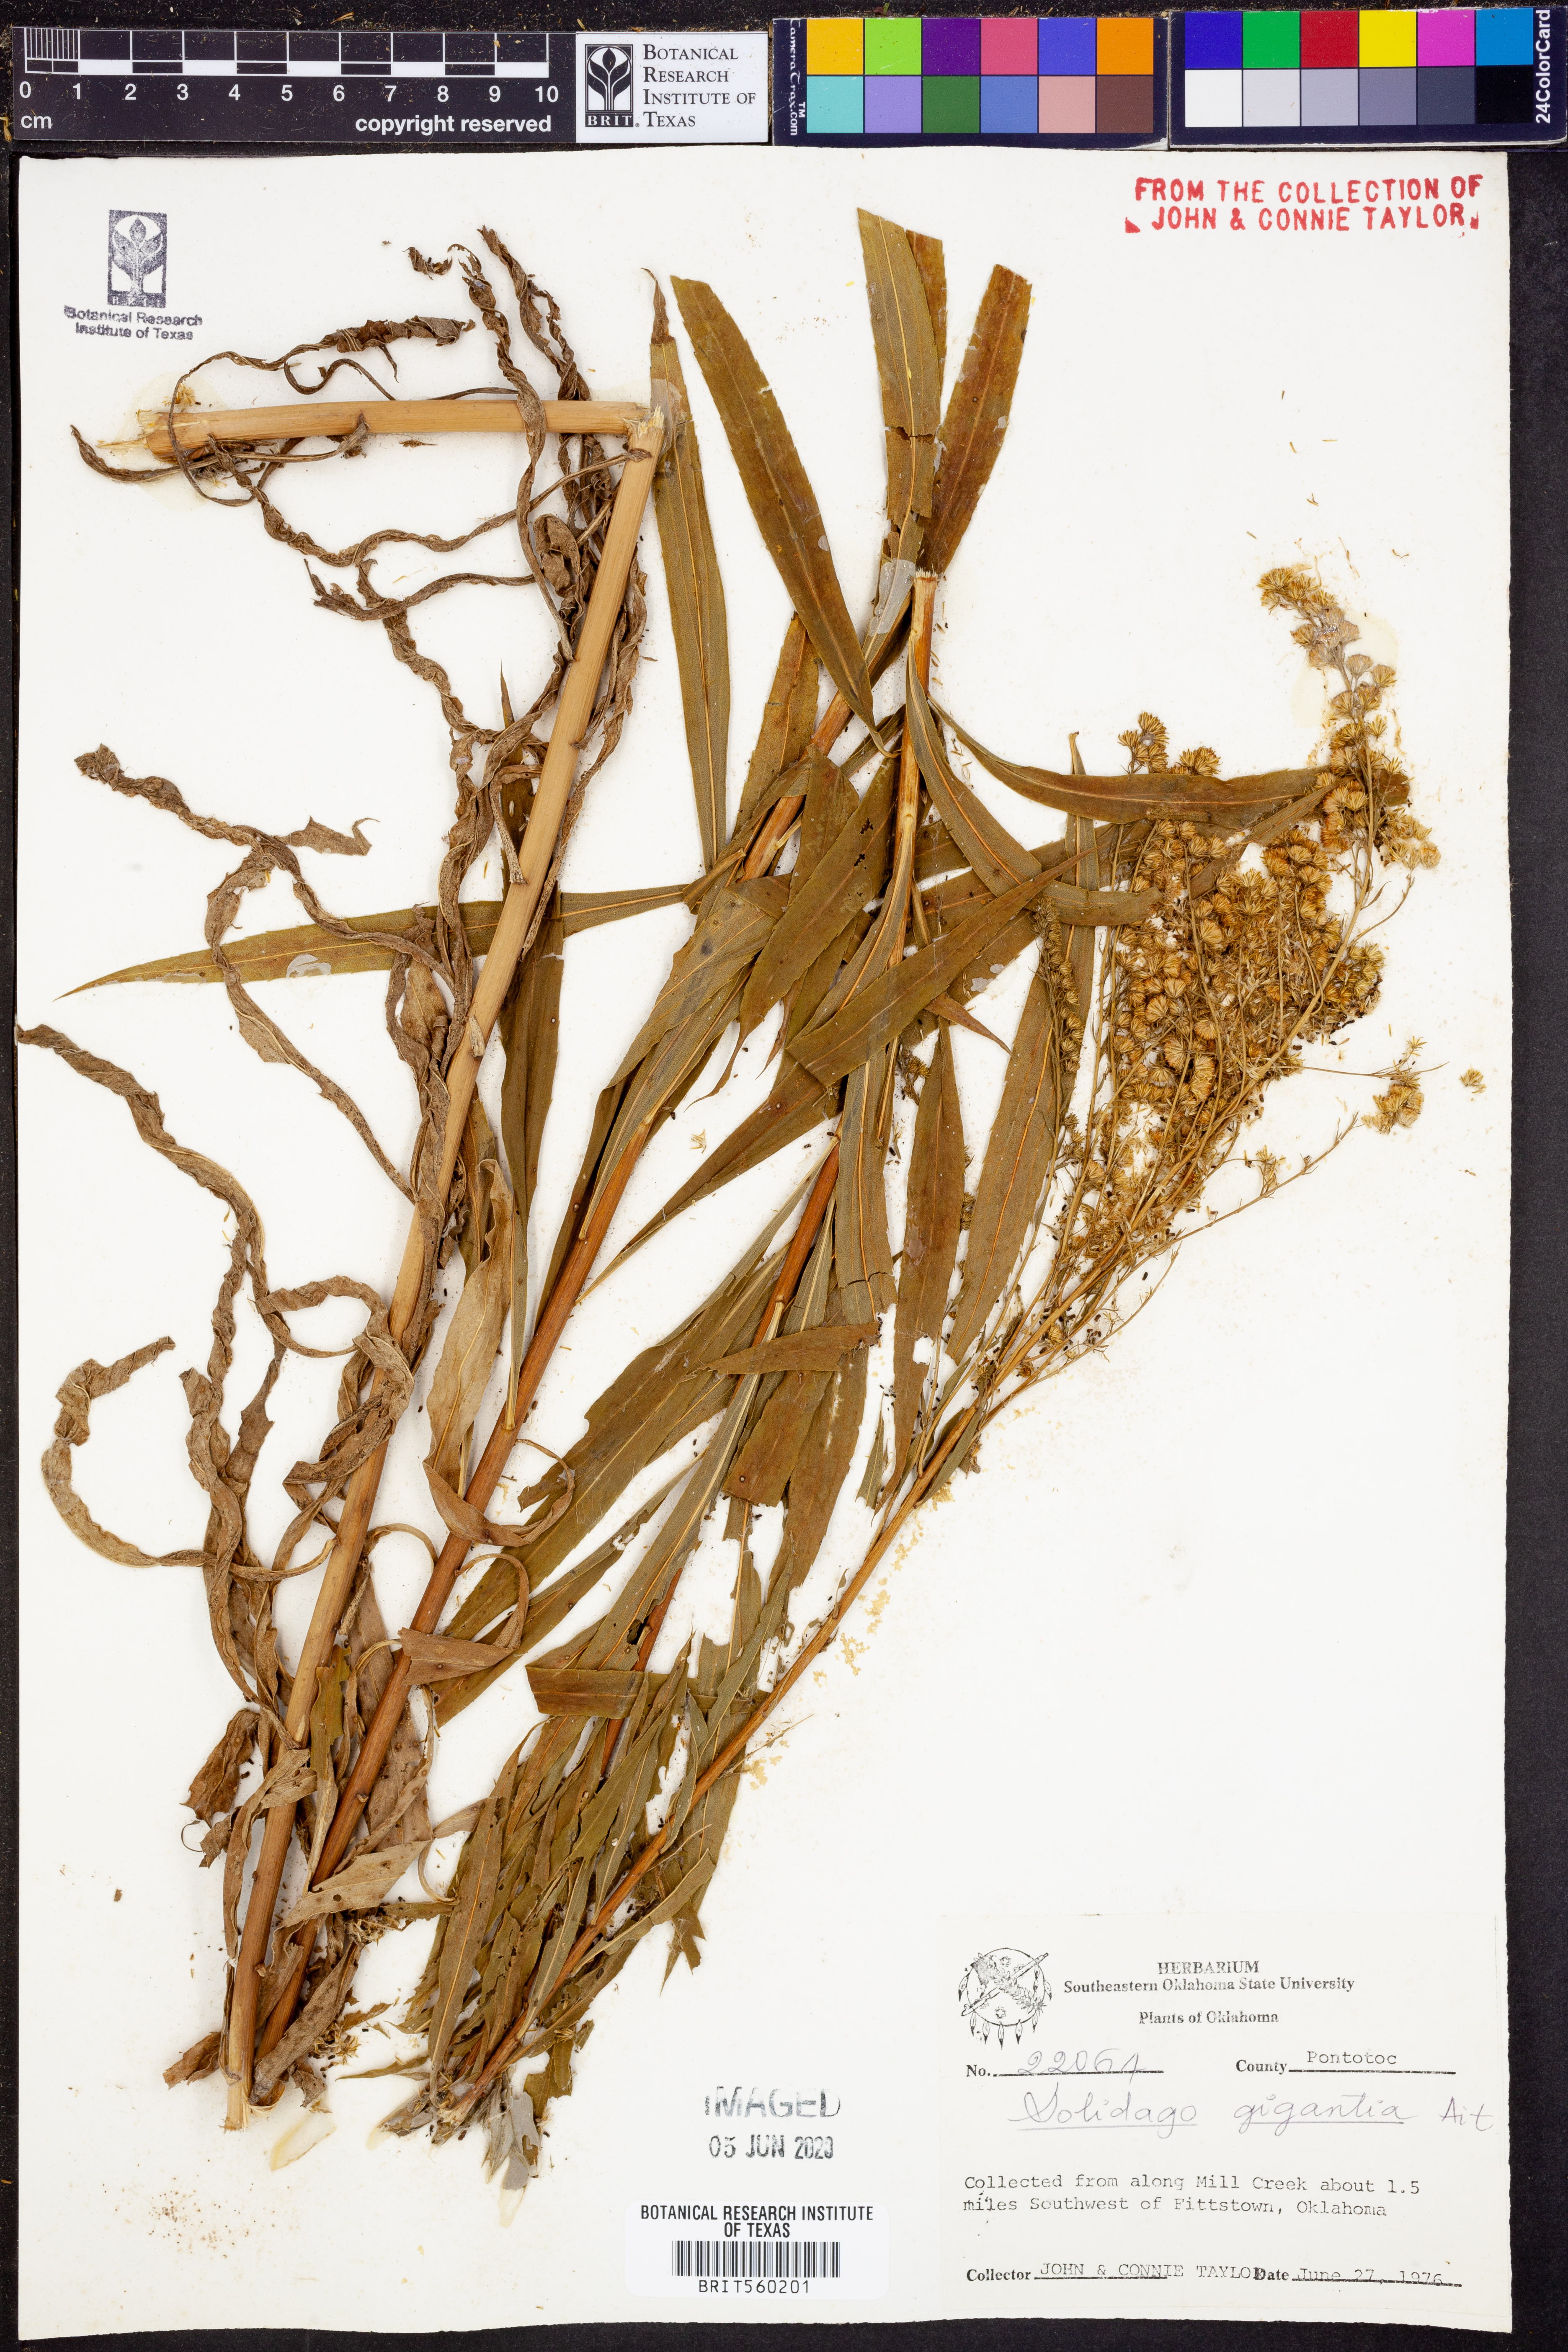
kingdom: Plantae
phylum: Tracheophyta
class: Magnoliopsida
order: Asterales
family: Asteraceae
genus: Solidago
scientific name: Solidago gigantea
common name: Giant goldenrod
